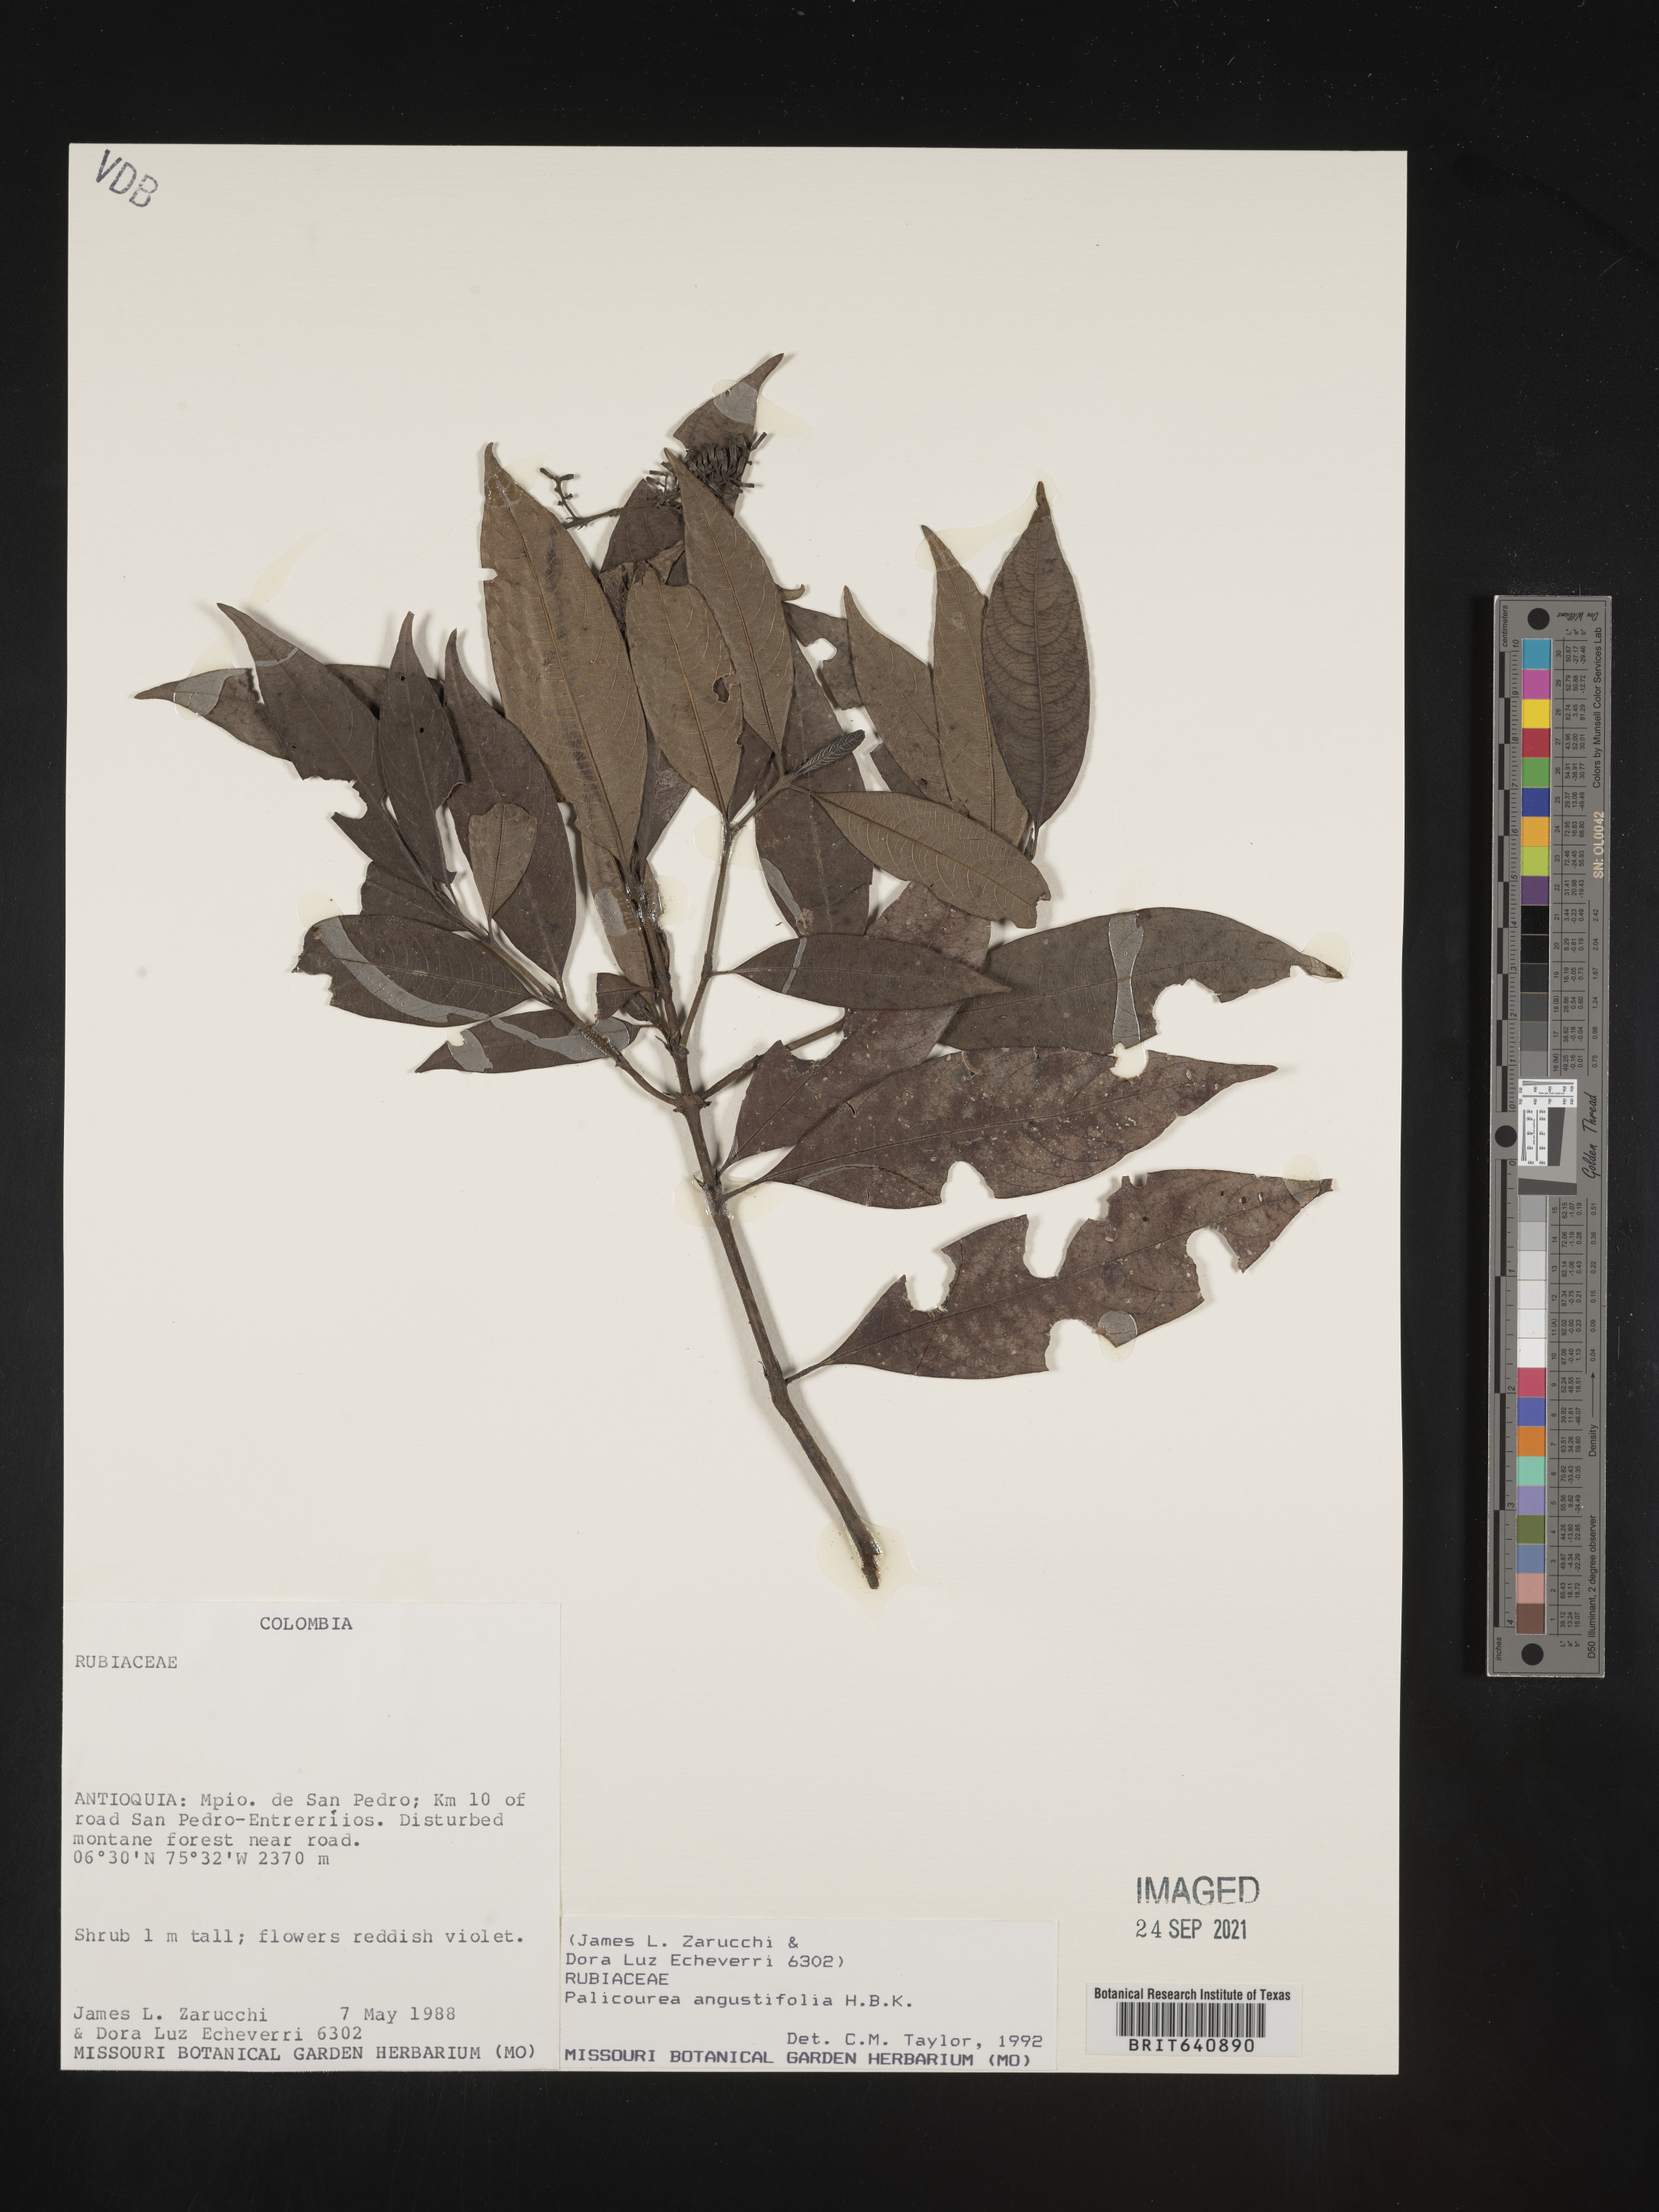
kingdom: Plantae
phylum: Tracheophyta
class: Magnoliopsida
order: Gentianales
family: Rubiaceae
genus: Palicourea
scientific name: Palicourea
